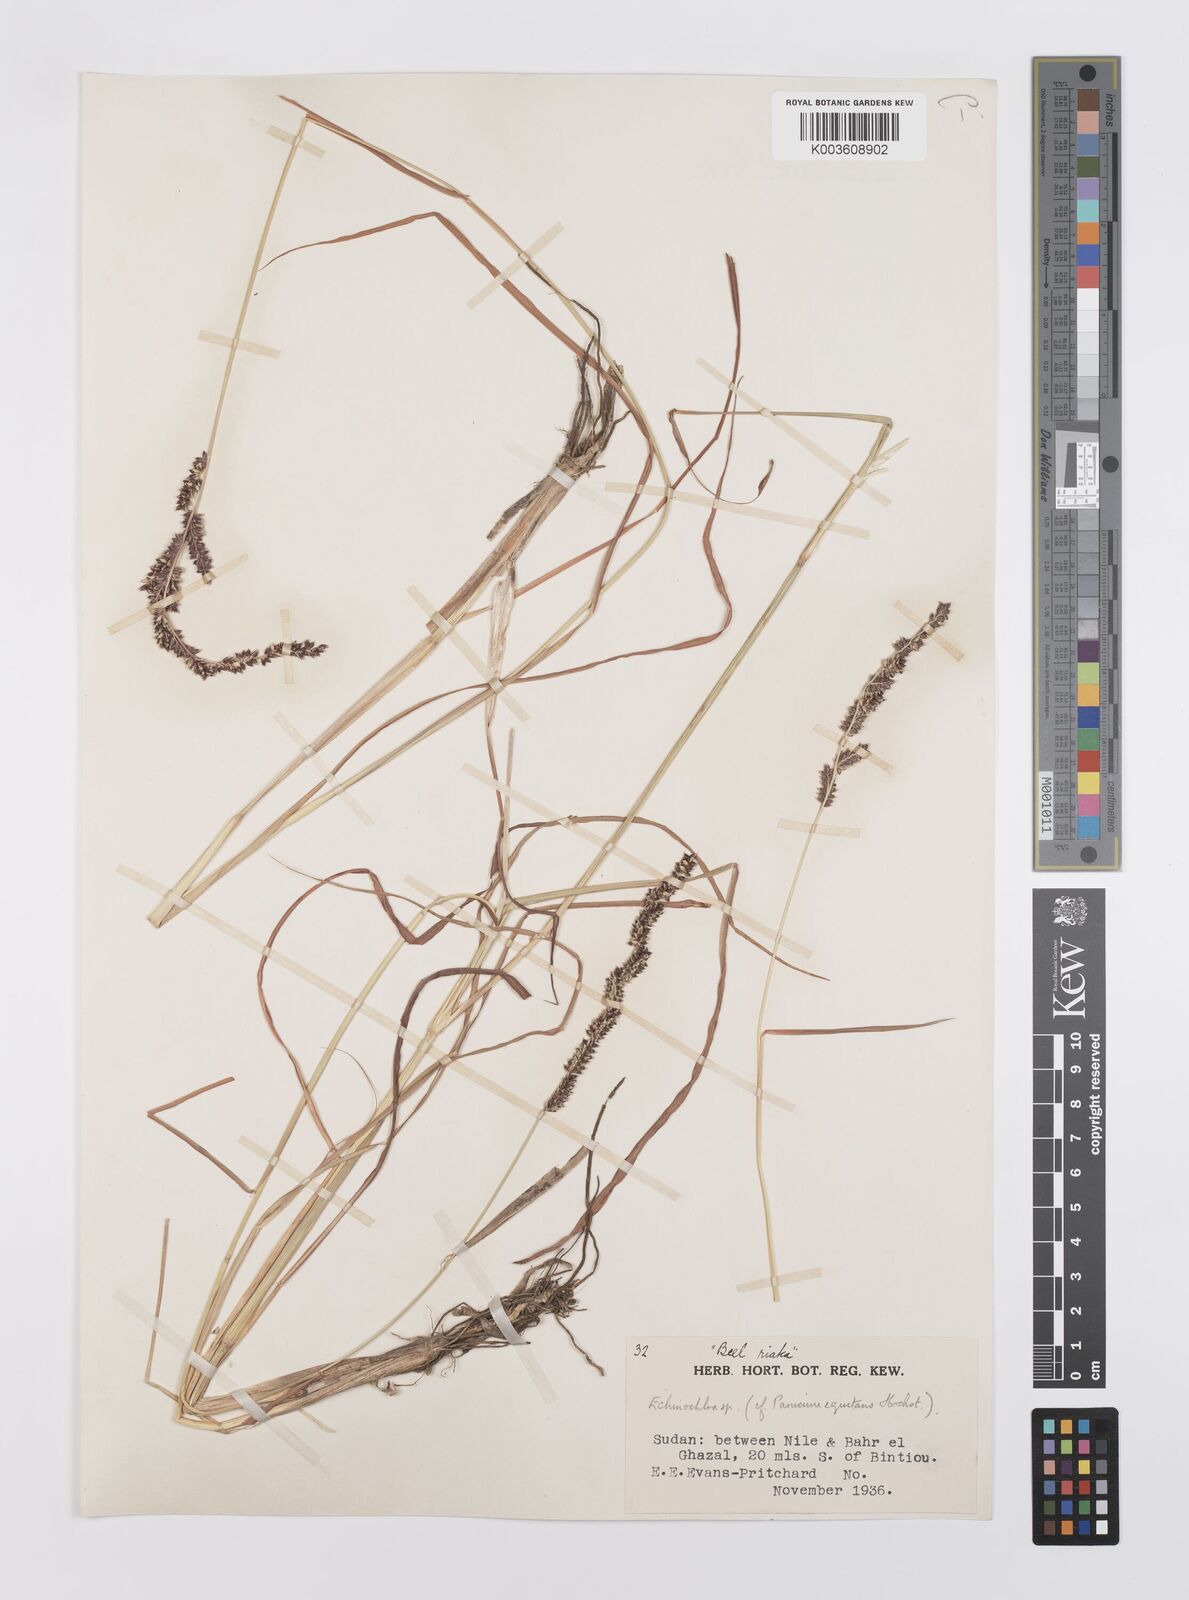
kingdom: Plantae
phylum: Tracheophyta
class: Liliopsida
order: Poales
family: Poaceae
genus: Echinochloa
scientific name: Echinochloa colonum
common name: Jungle rice
